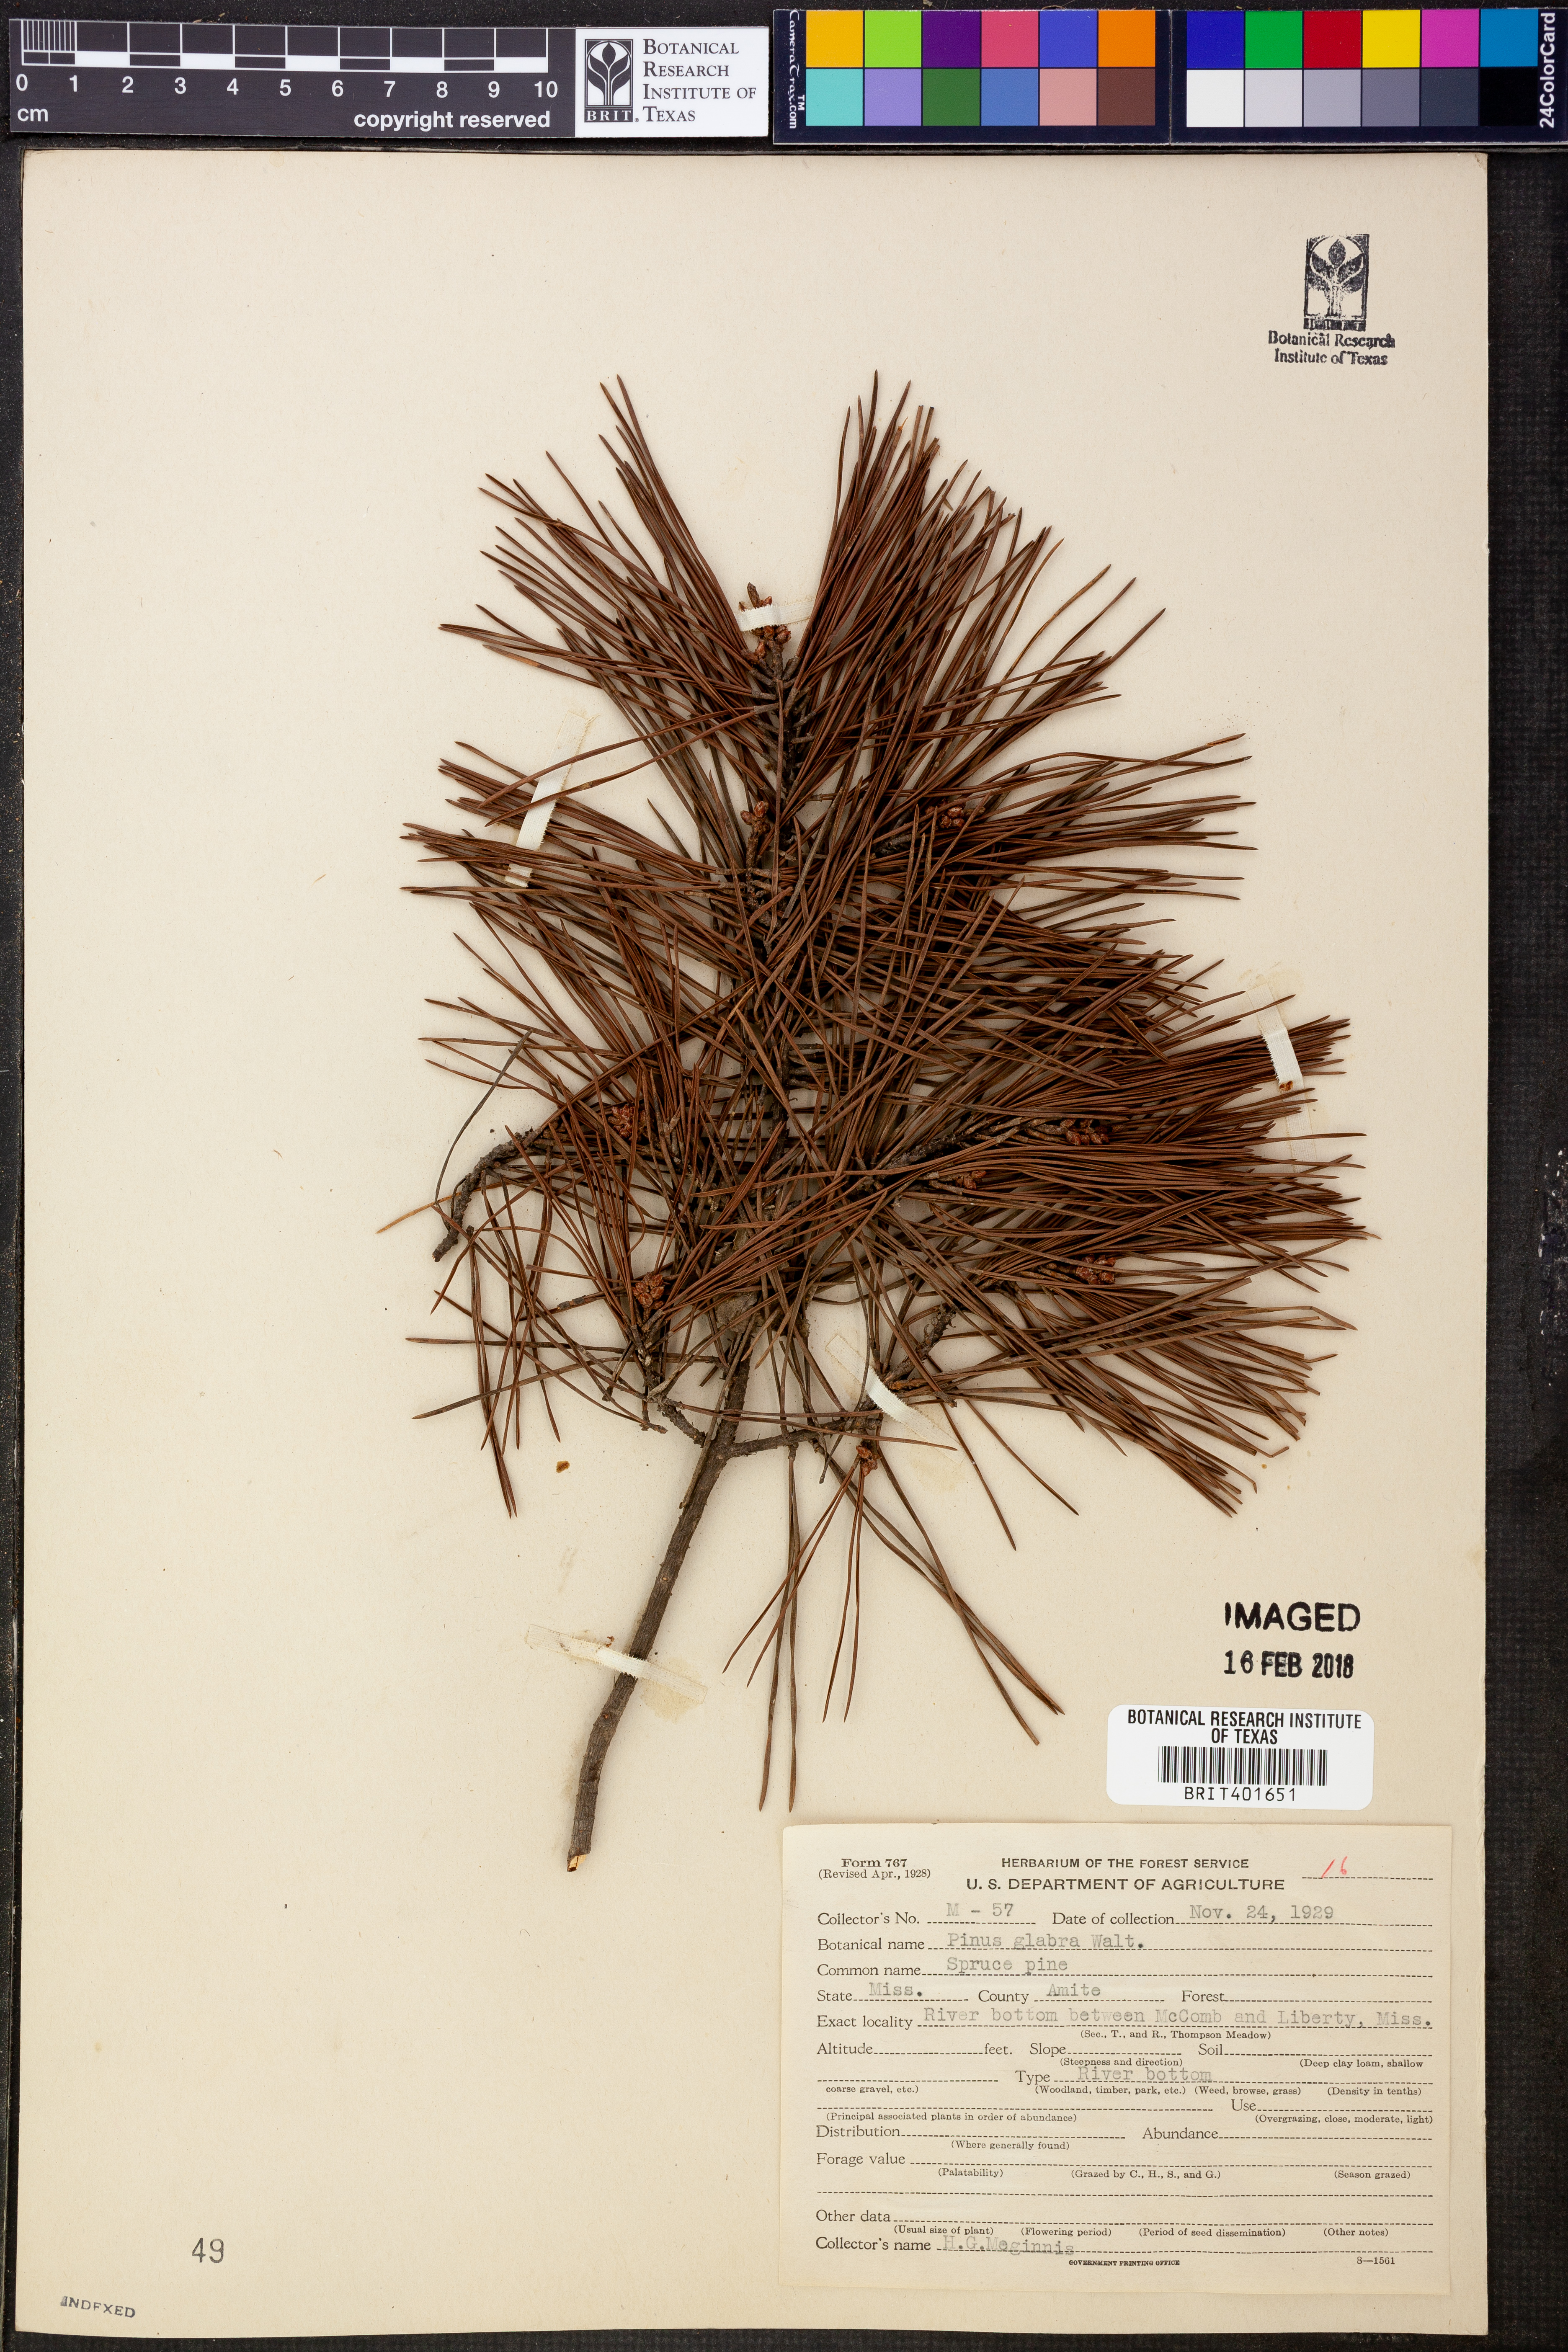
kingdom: Plantae
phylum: Tracheophyta
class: Pinopsida
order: Pinales
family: Pinaceae
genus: Pinus
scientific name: Pinus glabra
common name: Spruce pine
